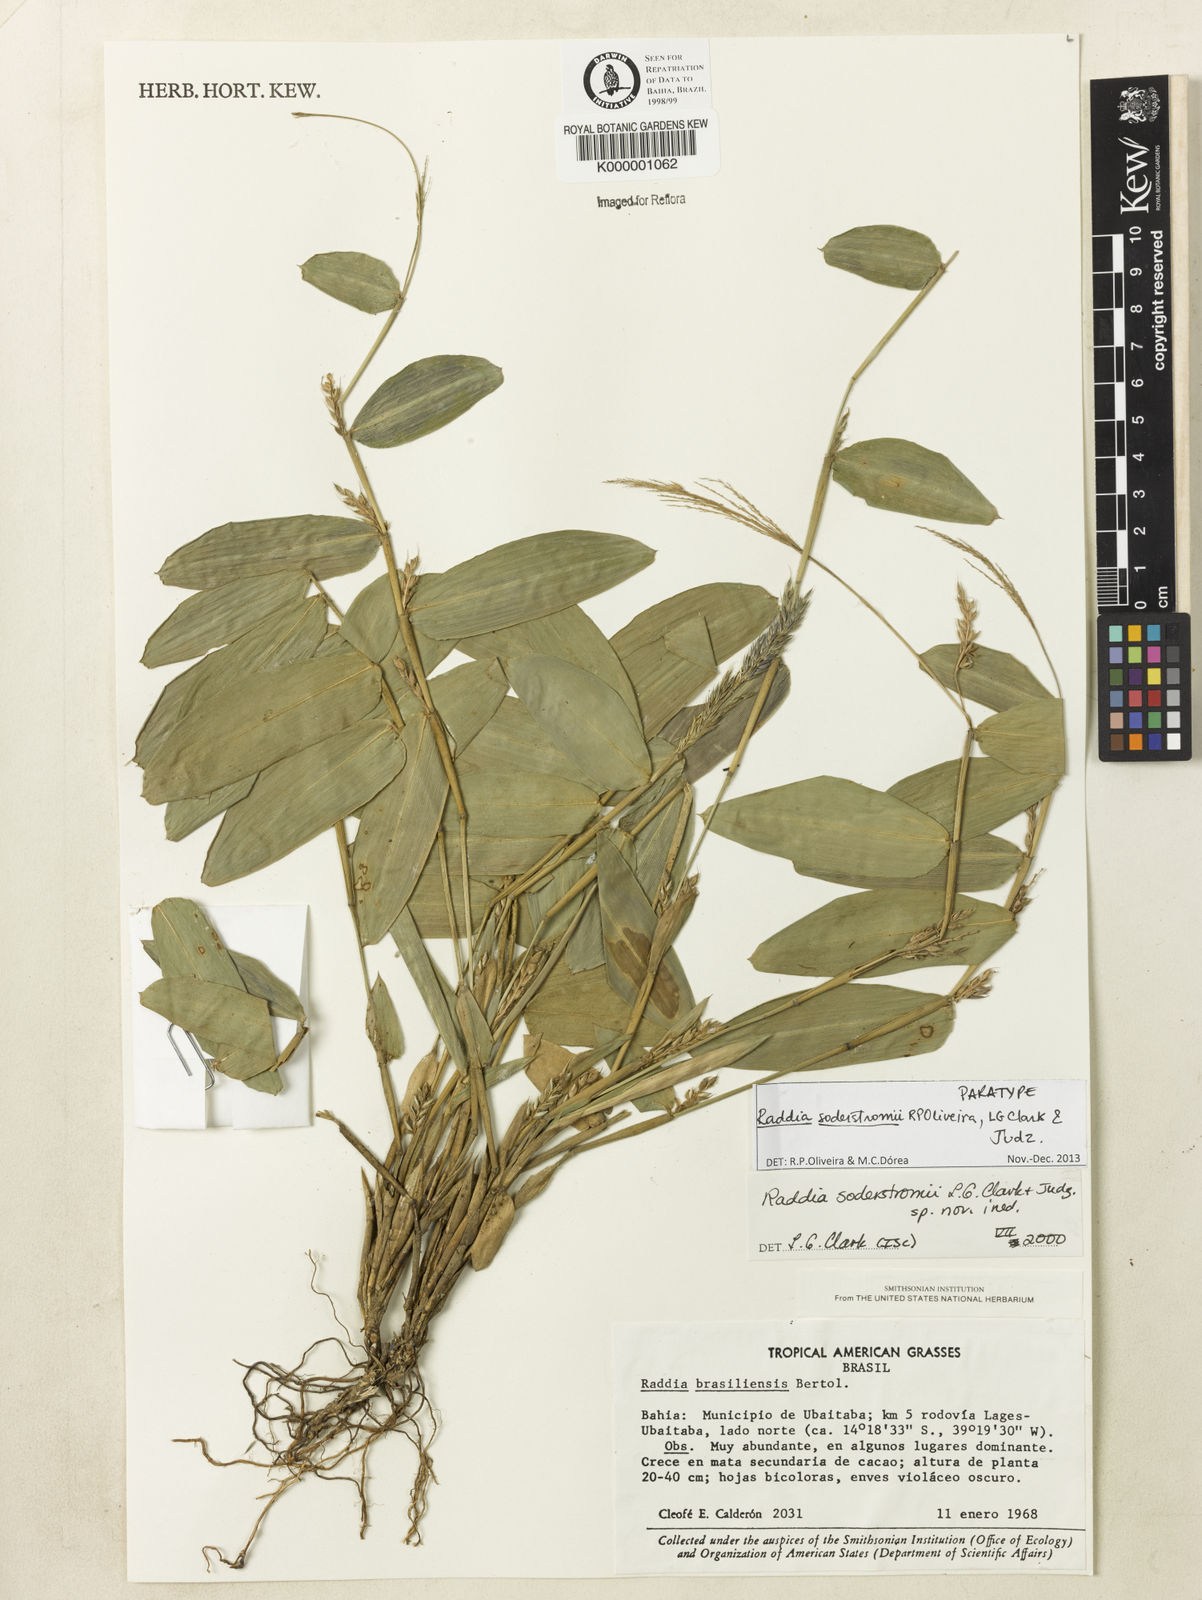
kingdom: Plantae
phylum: Tracheophyta
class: Liliopsida
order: Poales
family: Poaceae
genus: Raddia
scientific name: Raddia
